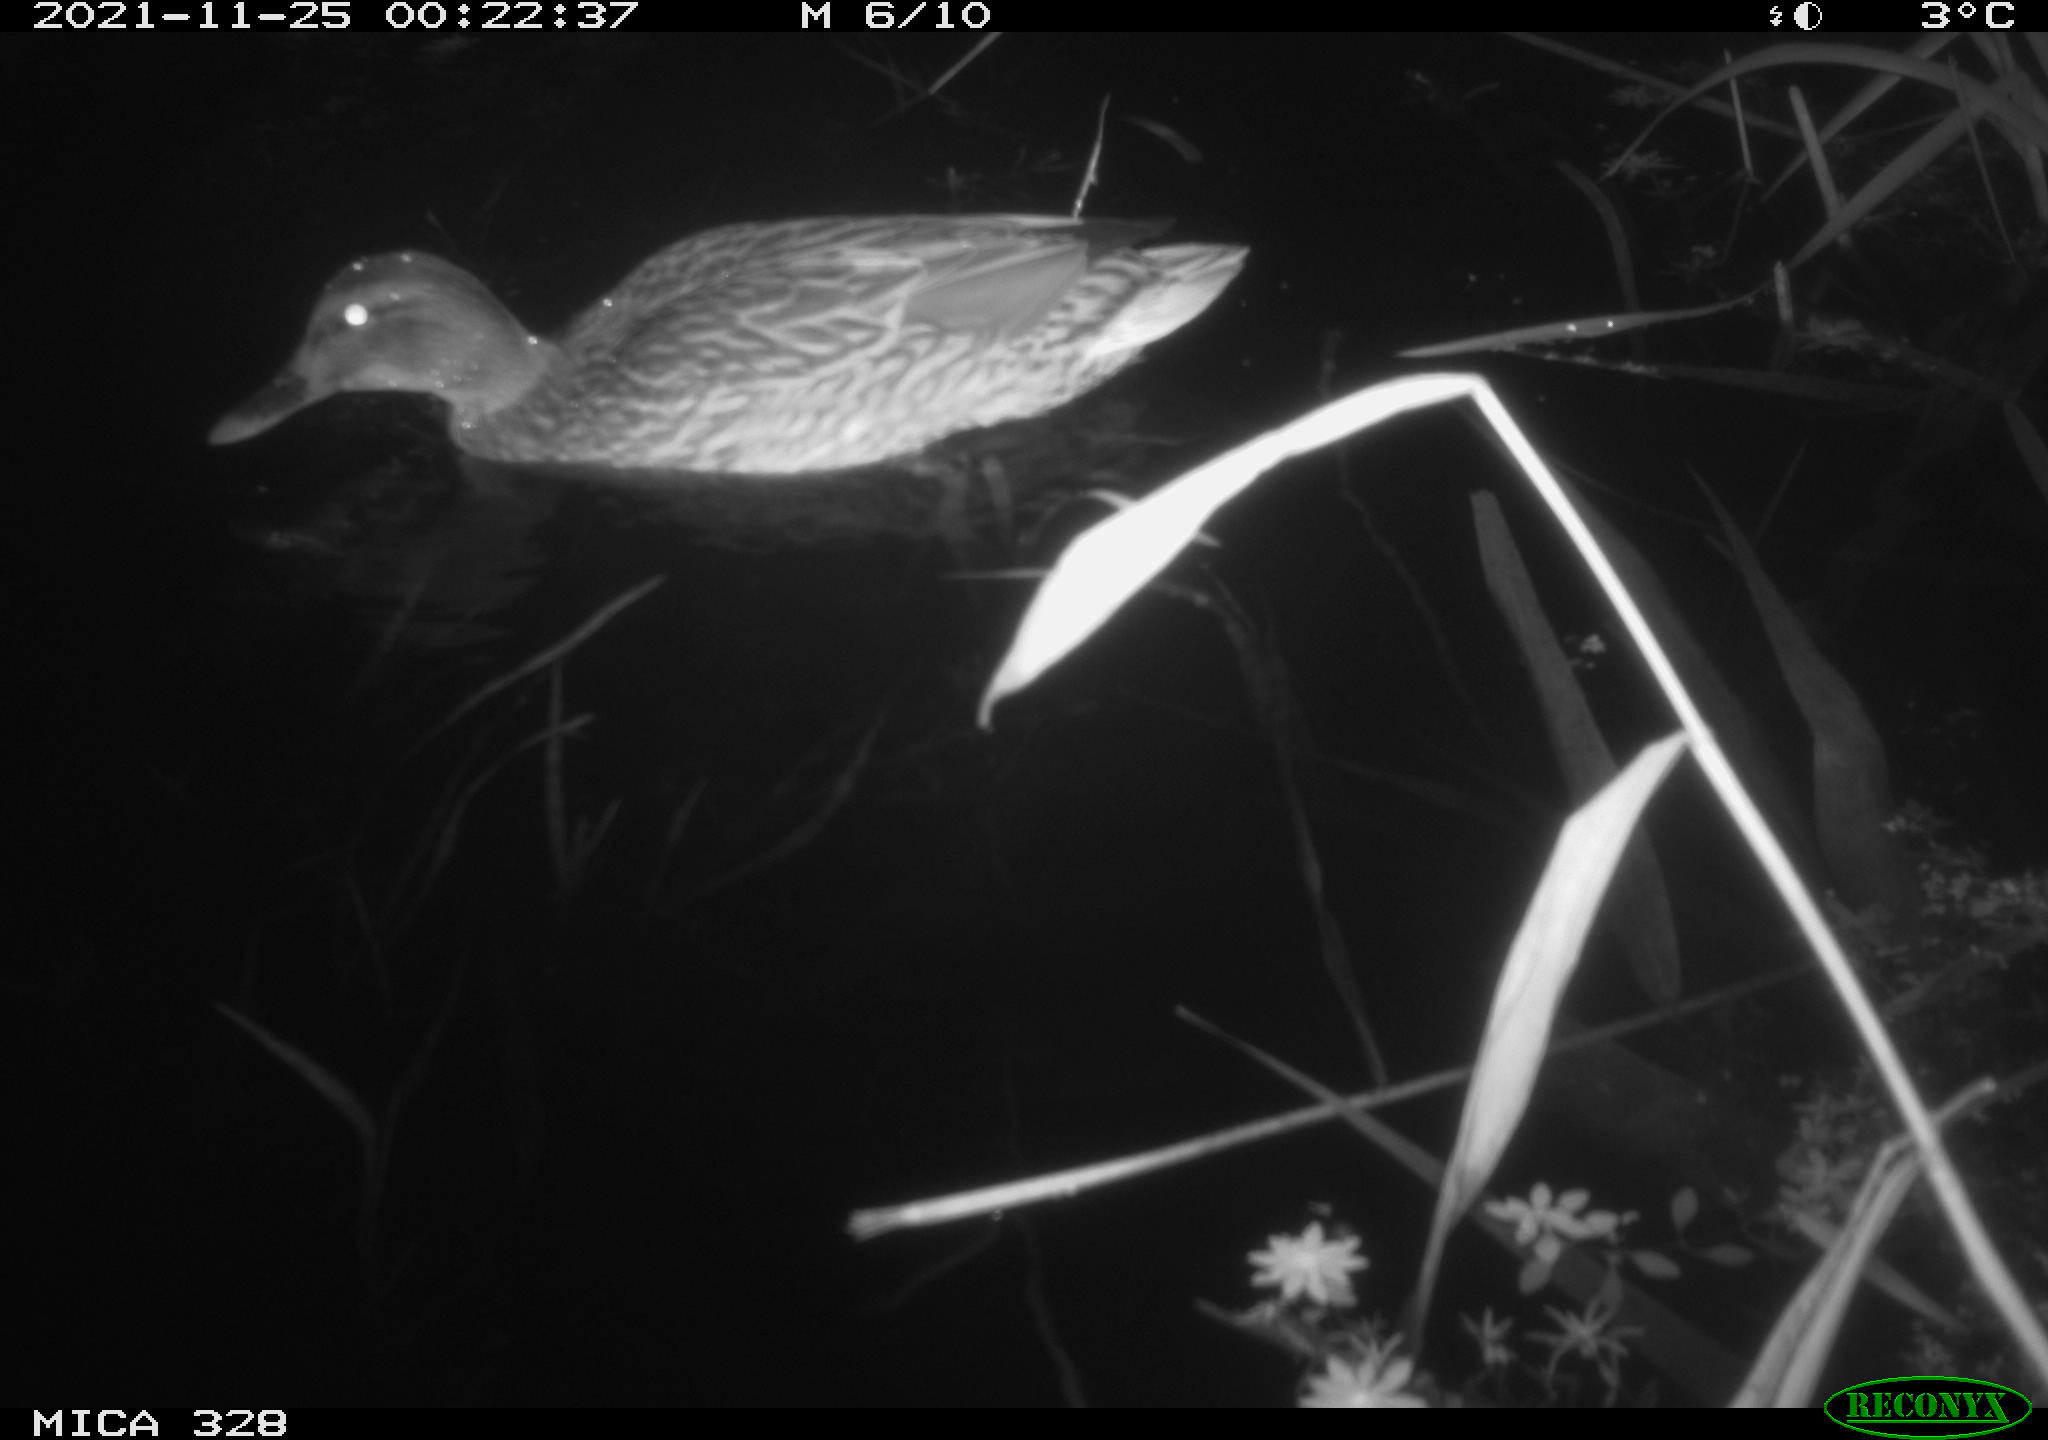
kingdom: Animalia
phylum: Chordata
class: Aves
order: Anseriformes
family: Anatidae
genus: Anas
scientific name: Anas platyrhynchos
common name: Mallard
